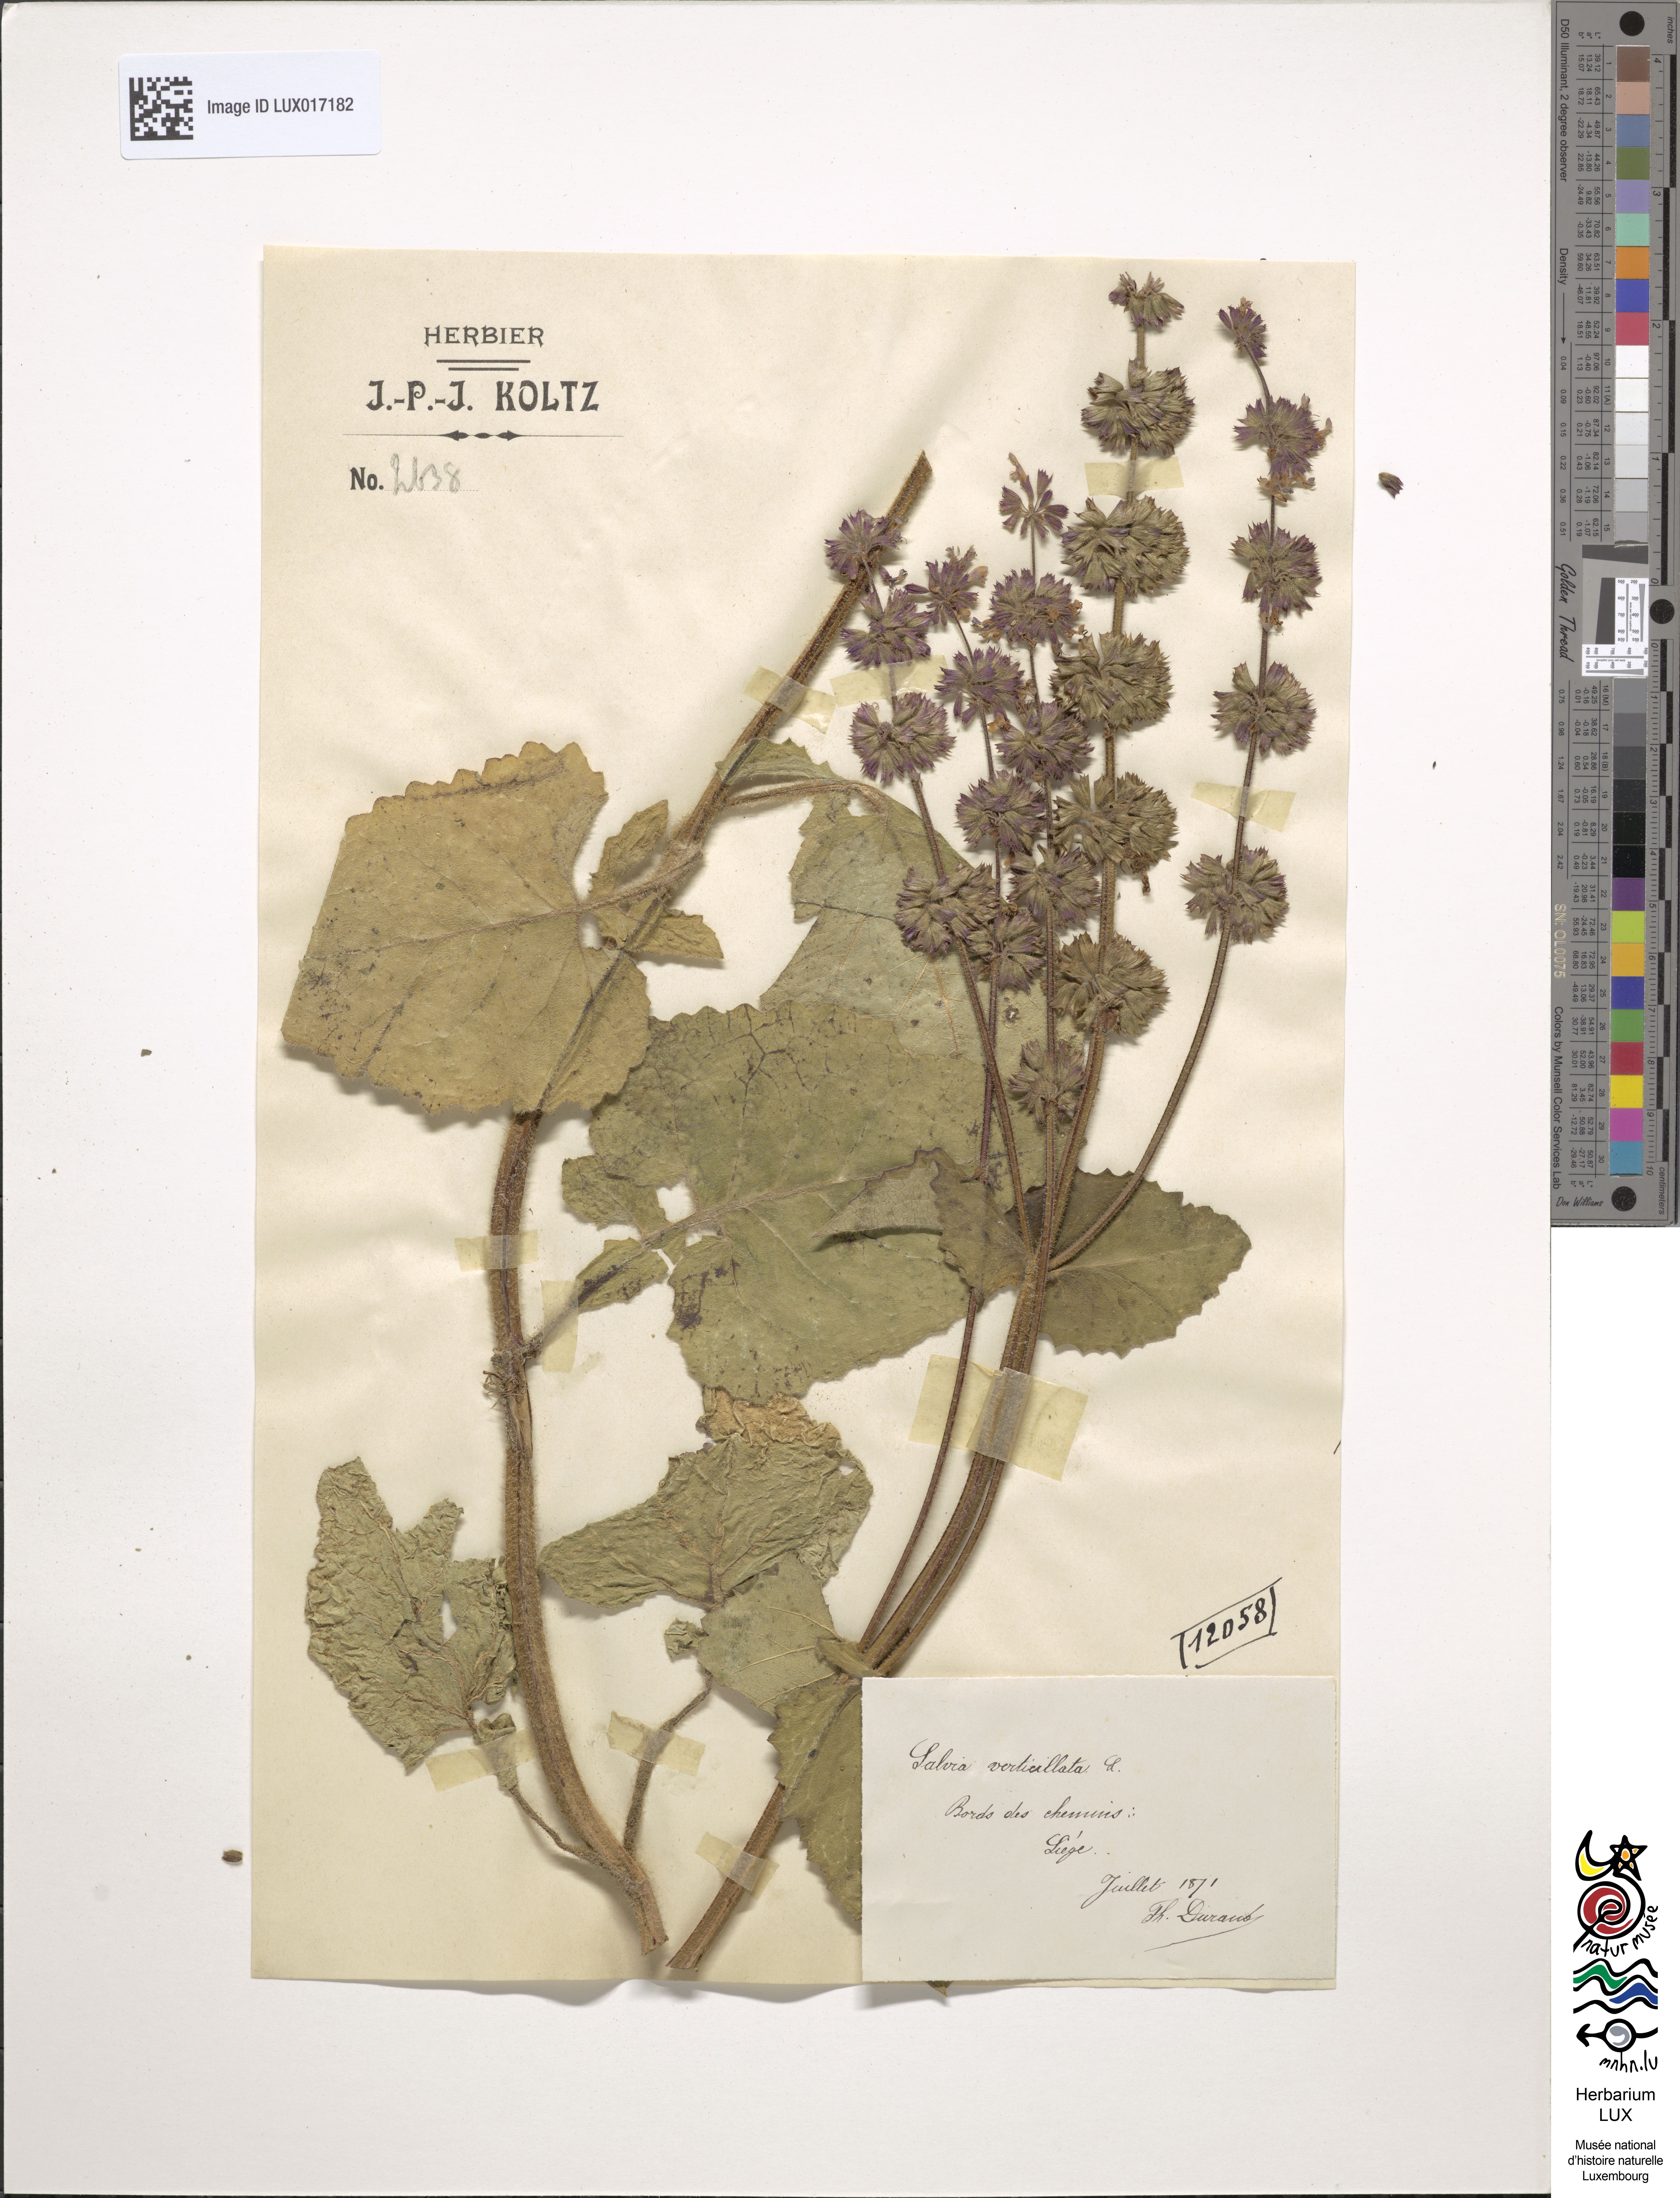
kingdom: Plantae
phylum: Tracheophyta
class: Magnoliopsida
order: Lamiales
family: Lamiaceae
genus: Salvia
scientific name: Salvia verticillata
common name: Whorled clary
